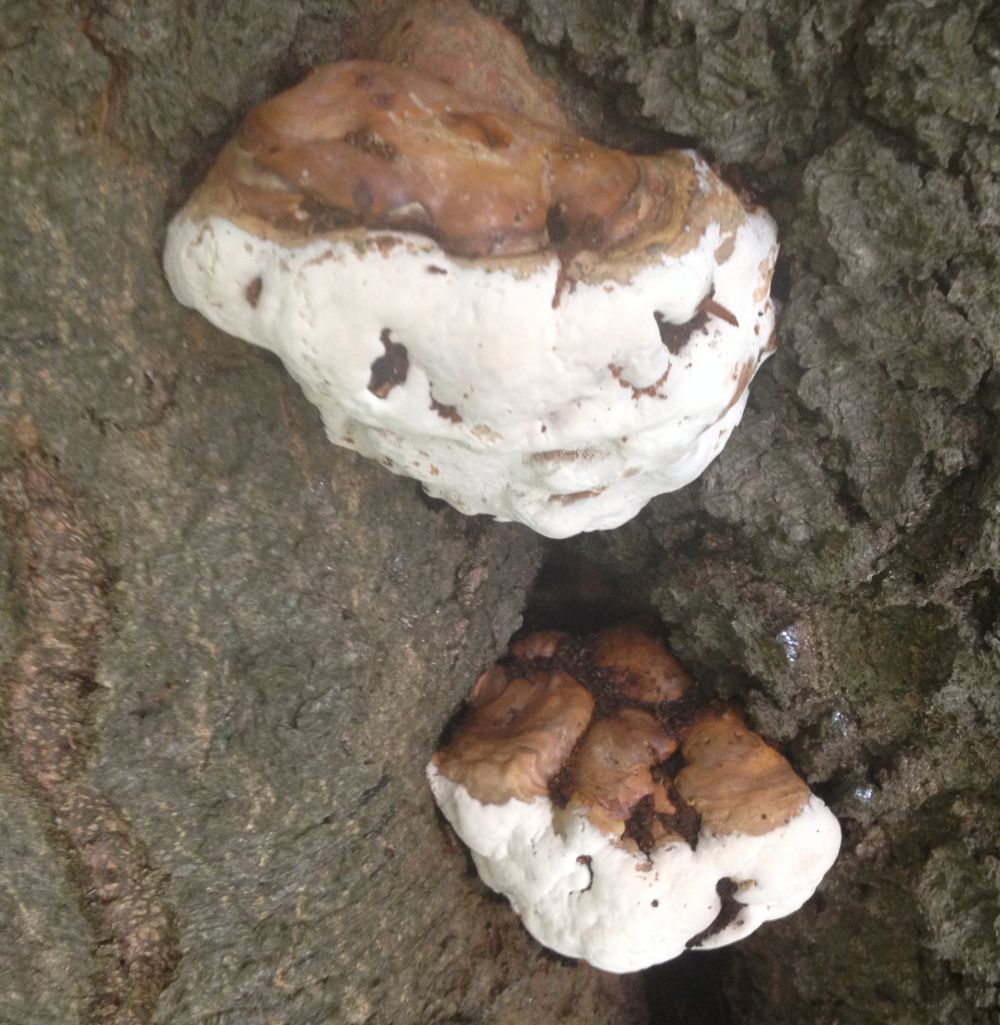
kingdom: Fungi
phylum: Basidiomycota
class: Agaricomycetes
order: Polyporales
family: Polyporaceae
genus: Ganoderma
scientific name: Ganoderma pfeifferi
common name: kobberrød lakporesvamp
